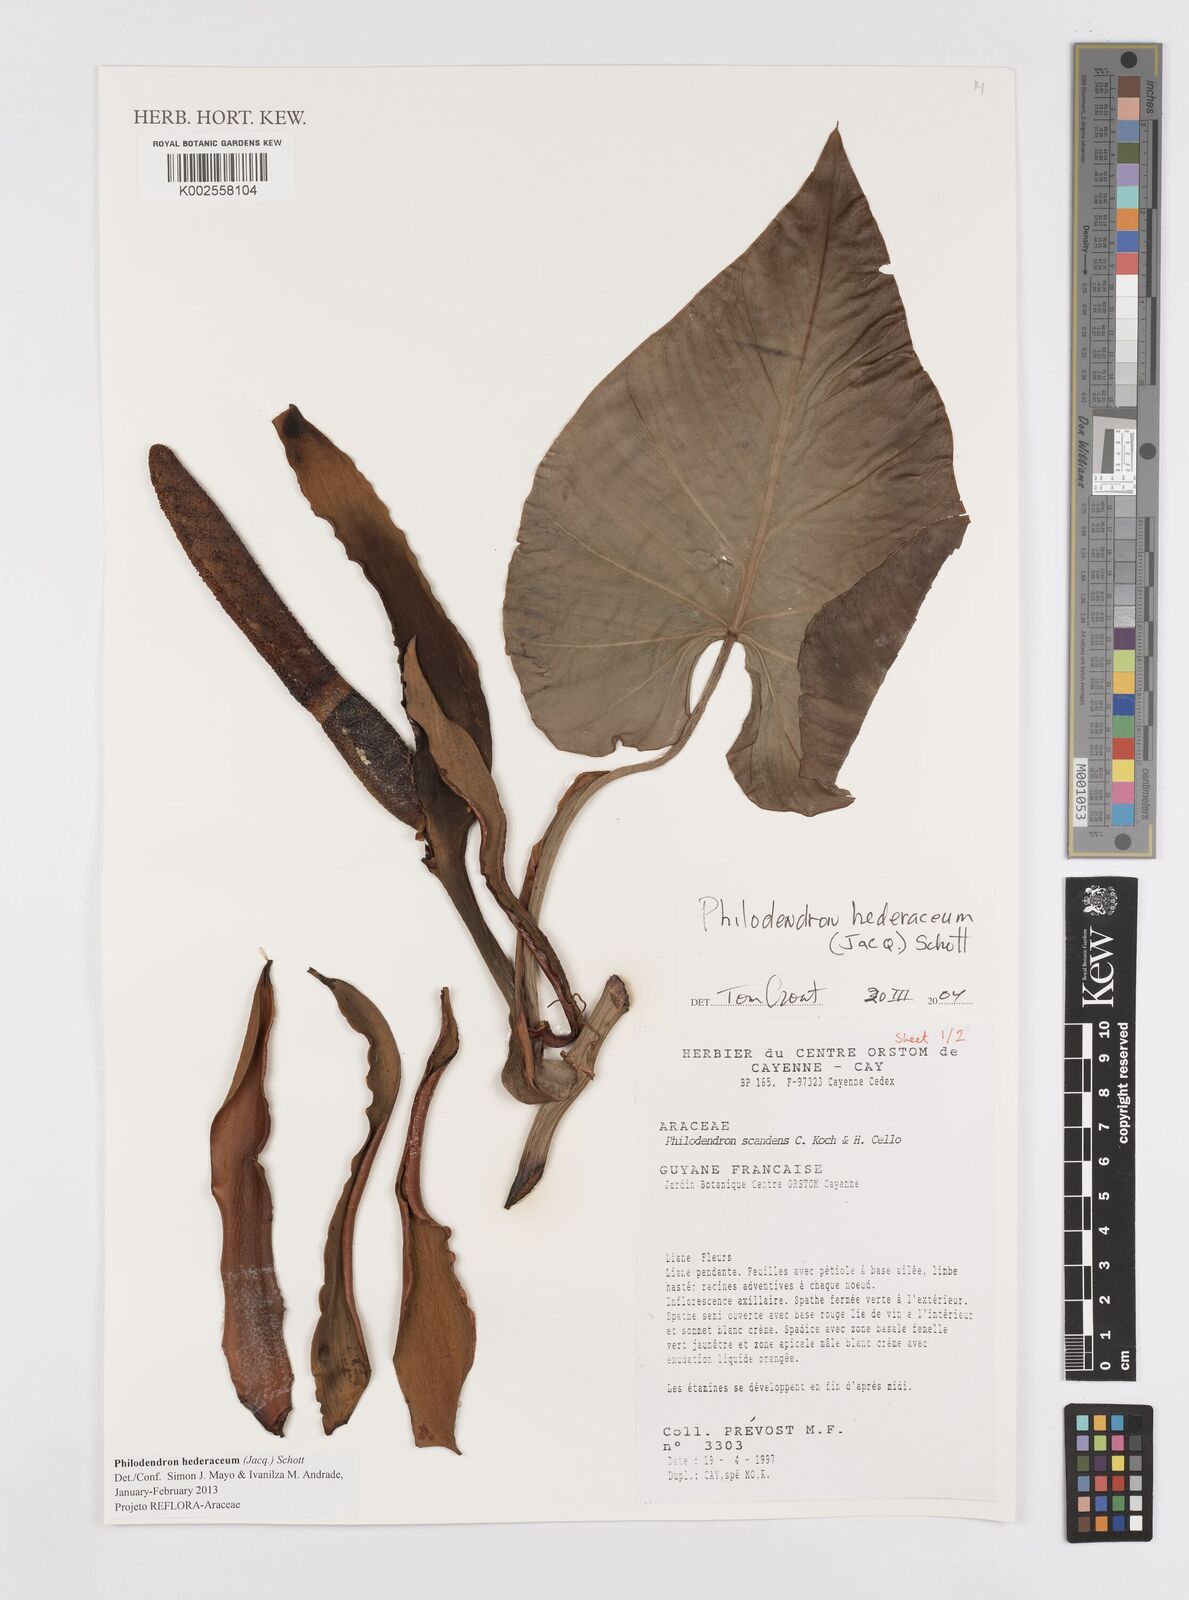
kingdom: Plantae
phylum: Tracheophyta
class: Liliopsida
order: Alismatales
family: Araceae
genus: Philodendron
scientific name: Philodendron hederaceum
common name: Vilevine
